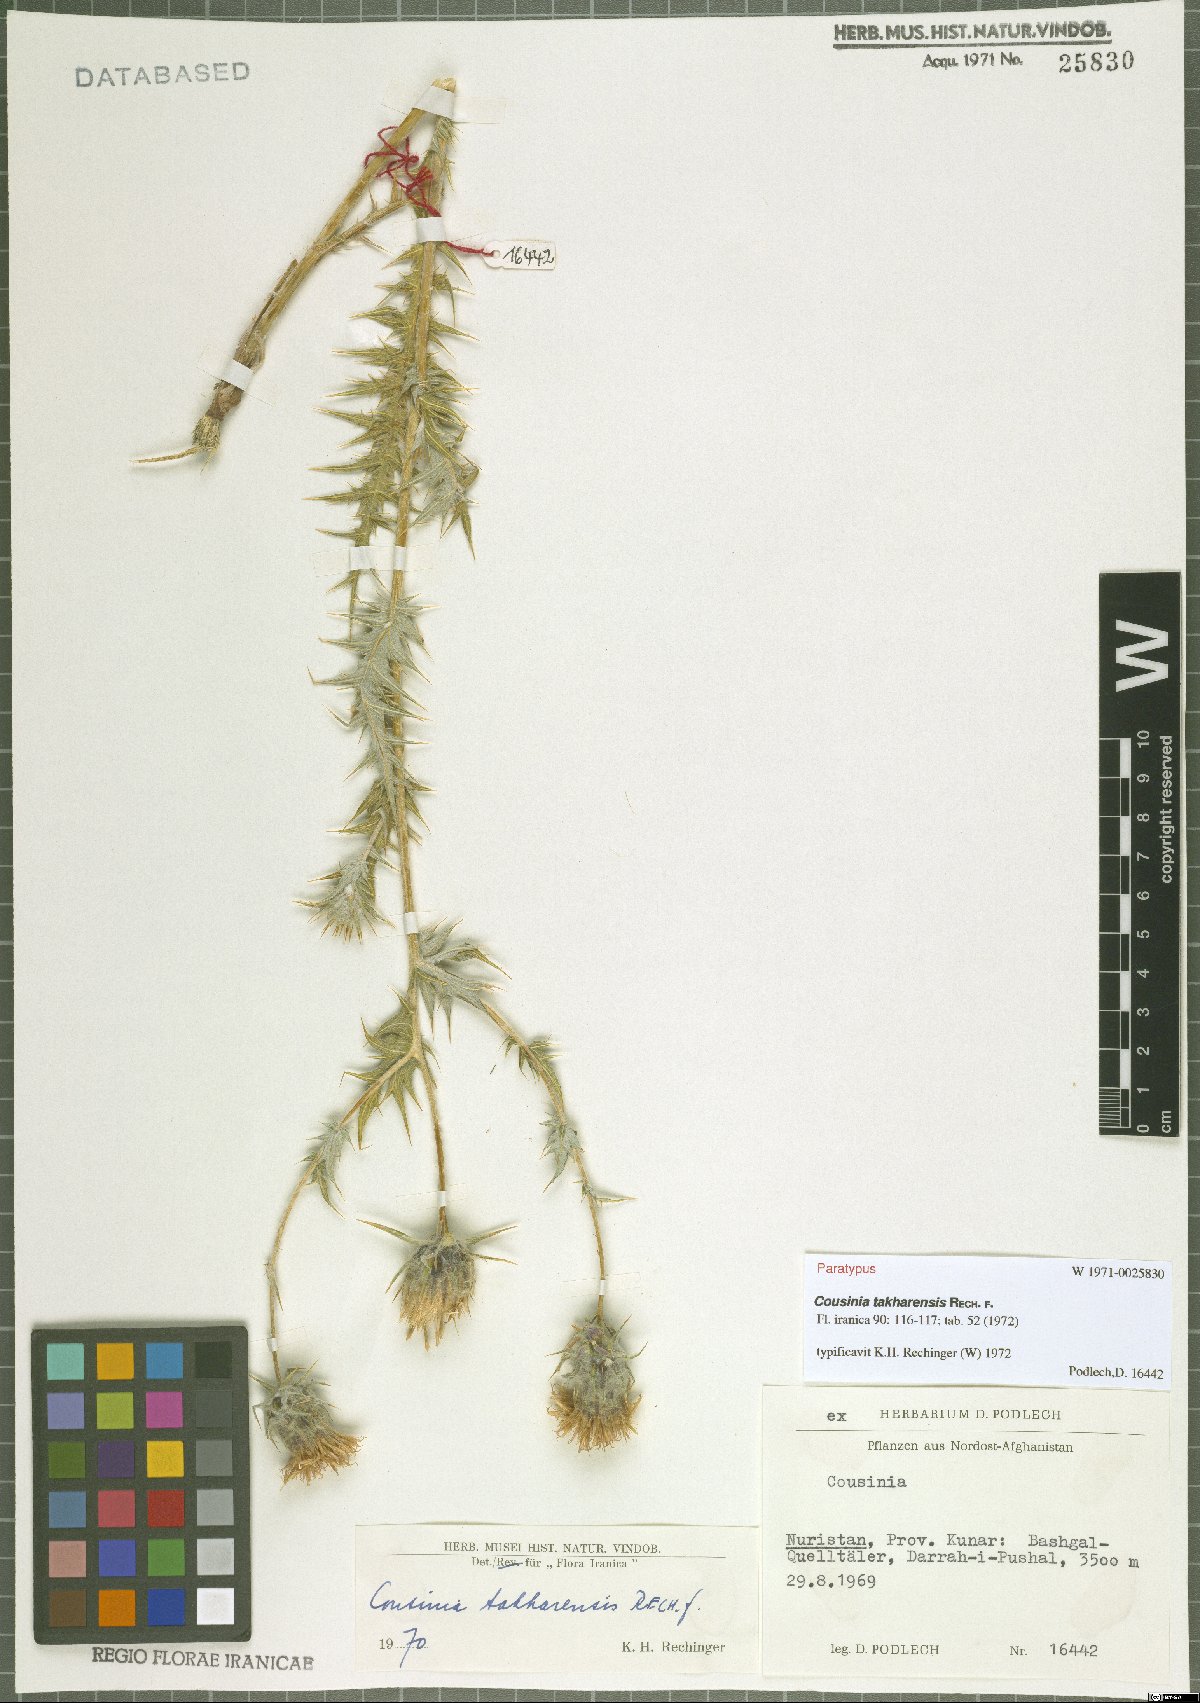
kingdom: Plantae
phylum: Tracheophyta
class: Magnoliopsida
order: Asterales
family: Asteraceae
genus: Cousinia
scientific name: Cousinia takharensis
